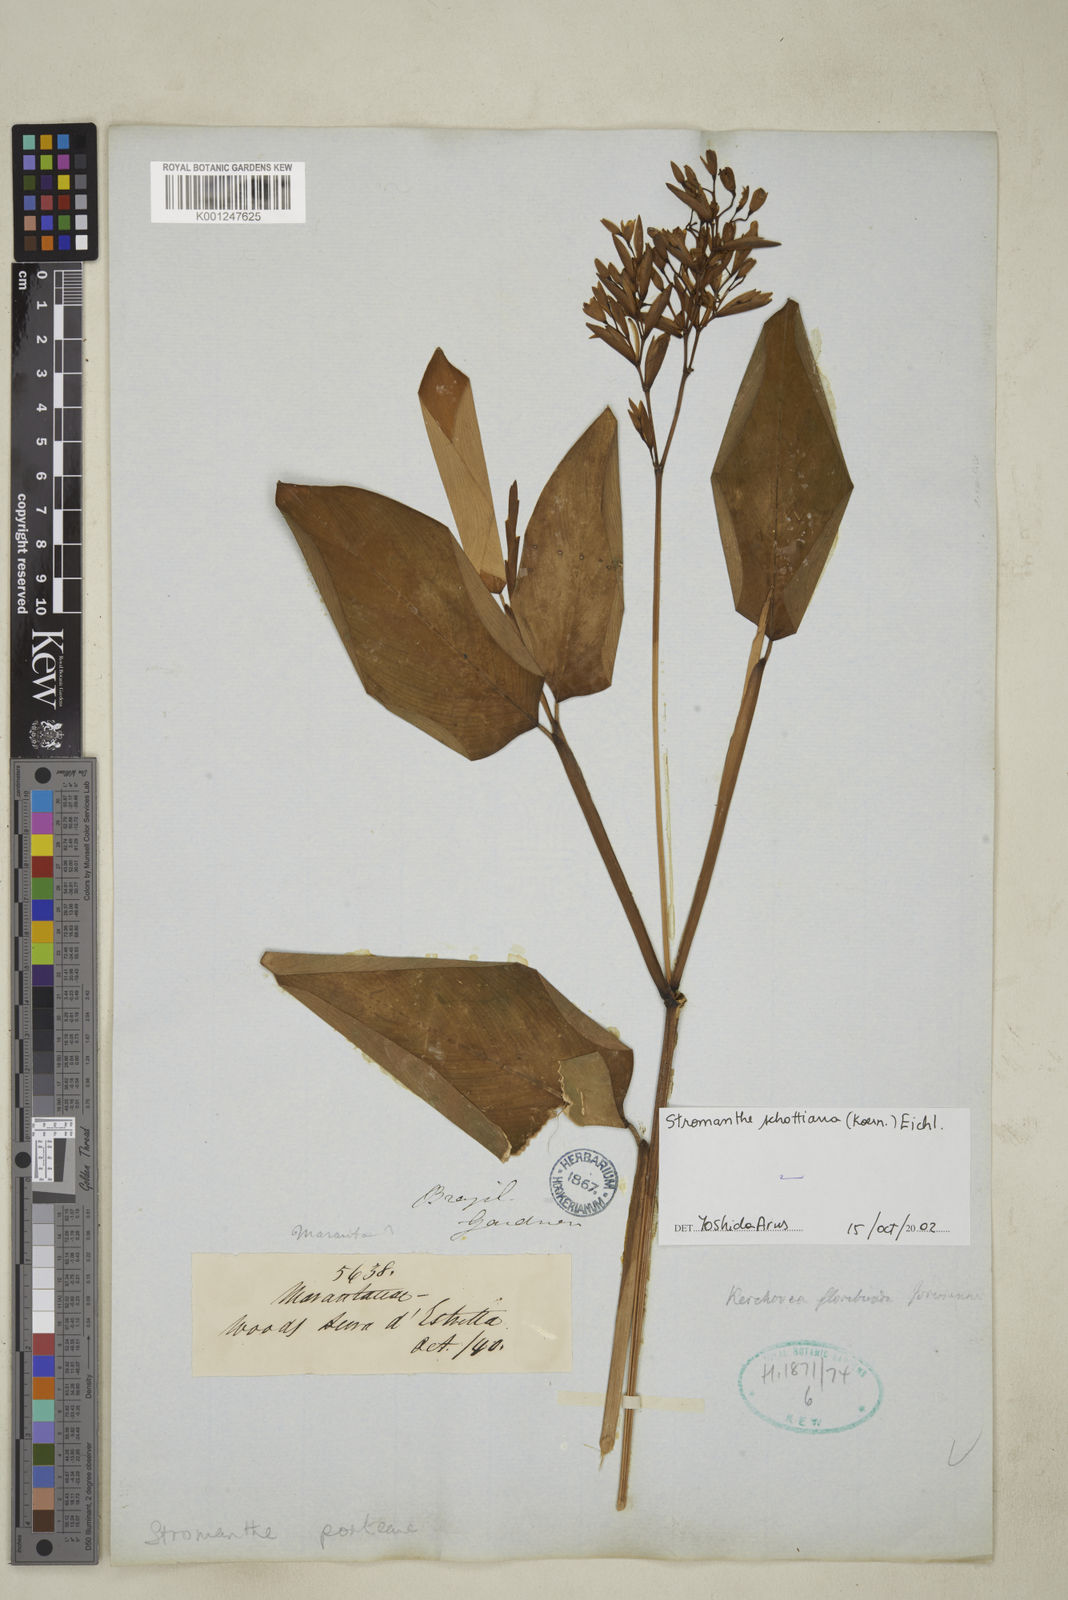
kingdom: Plantae
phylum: Tracheophyta
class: Liliopsida
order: Zingiberales
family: Marantaceae
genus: Stromanthe
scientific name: Stromanthe schottiana
